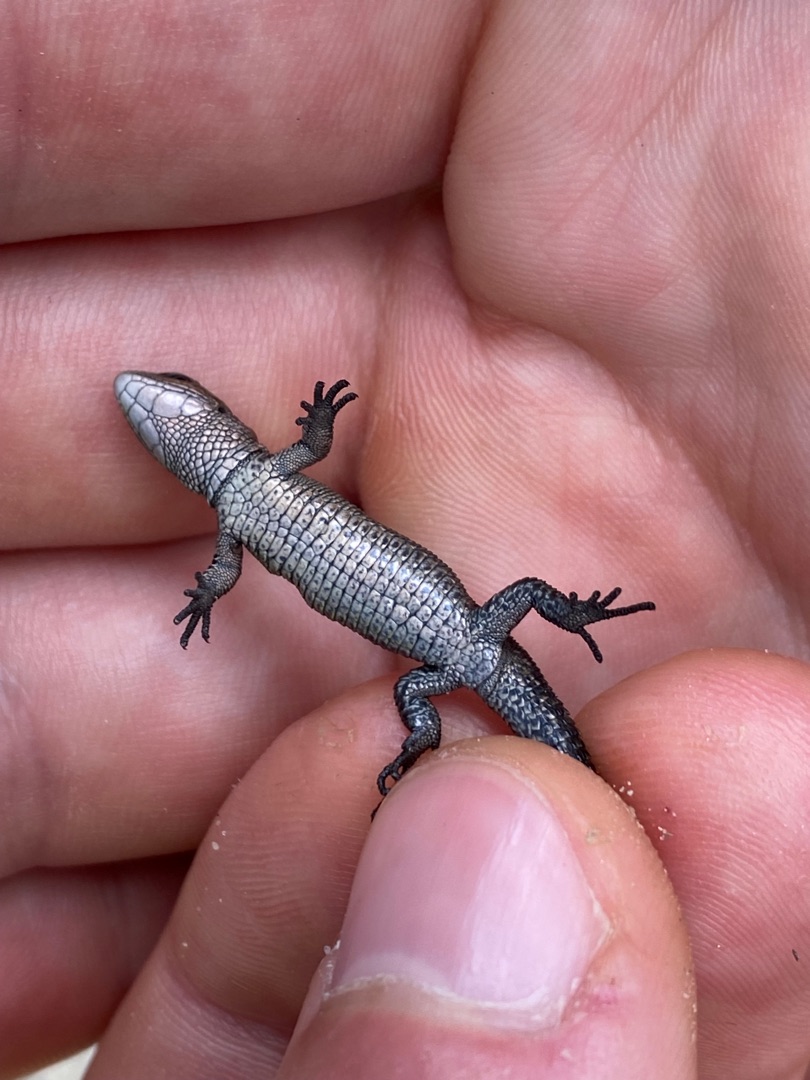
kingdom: Animalia
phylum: Chordata
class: Squamata
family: Lacertidae
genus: Zootoca
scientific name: Zootoca vivipara
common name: Skovfirben
